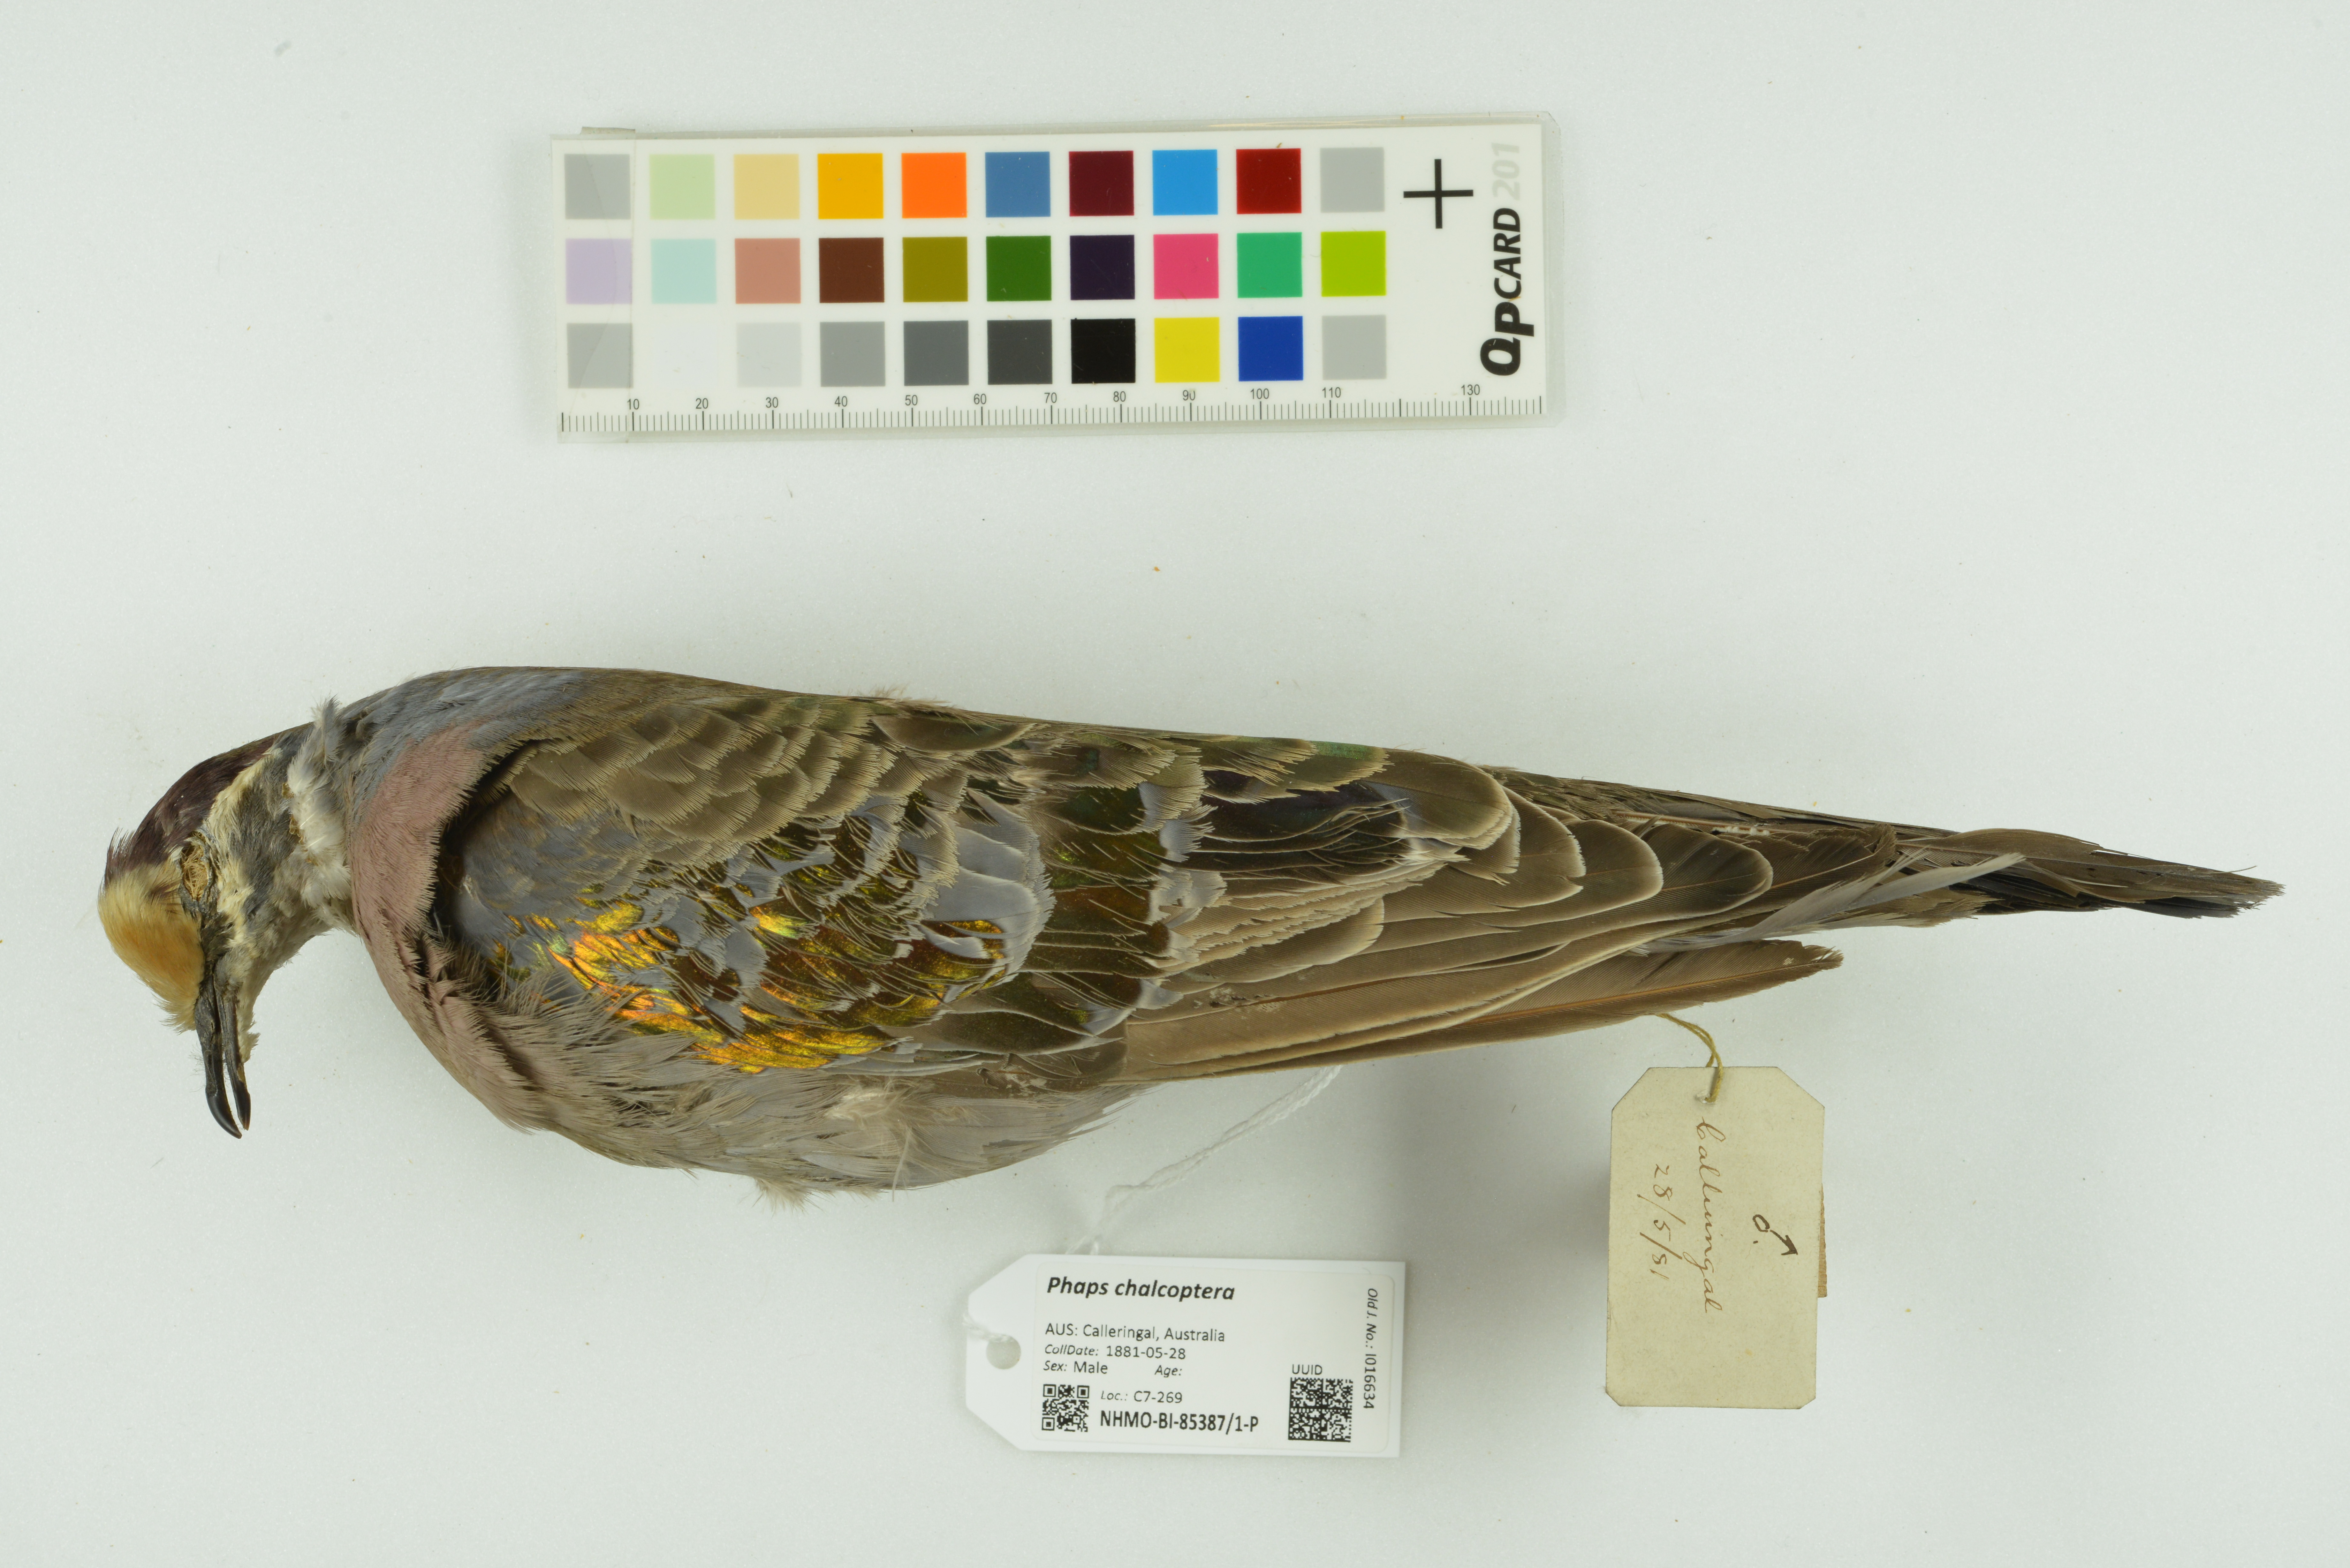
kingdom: Animalia
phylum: Chordata
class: Aves
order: Columbiformes
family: Columbidae
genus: Phaps
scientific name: Phaps chalcoptera
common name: Common bronzewing
